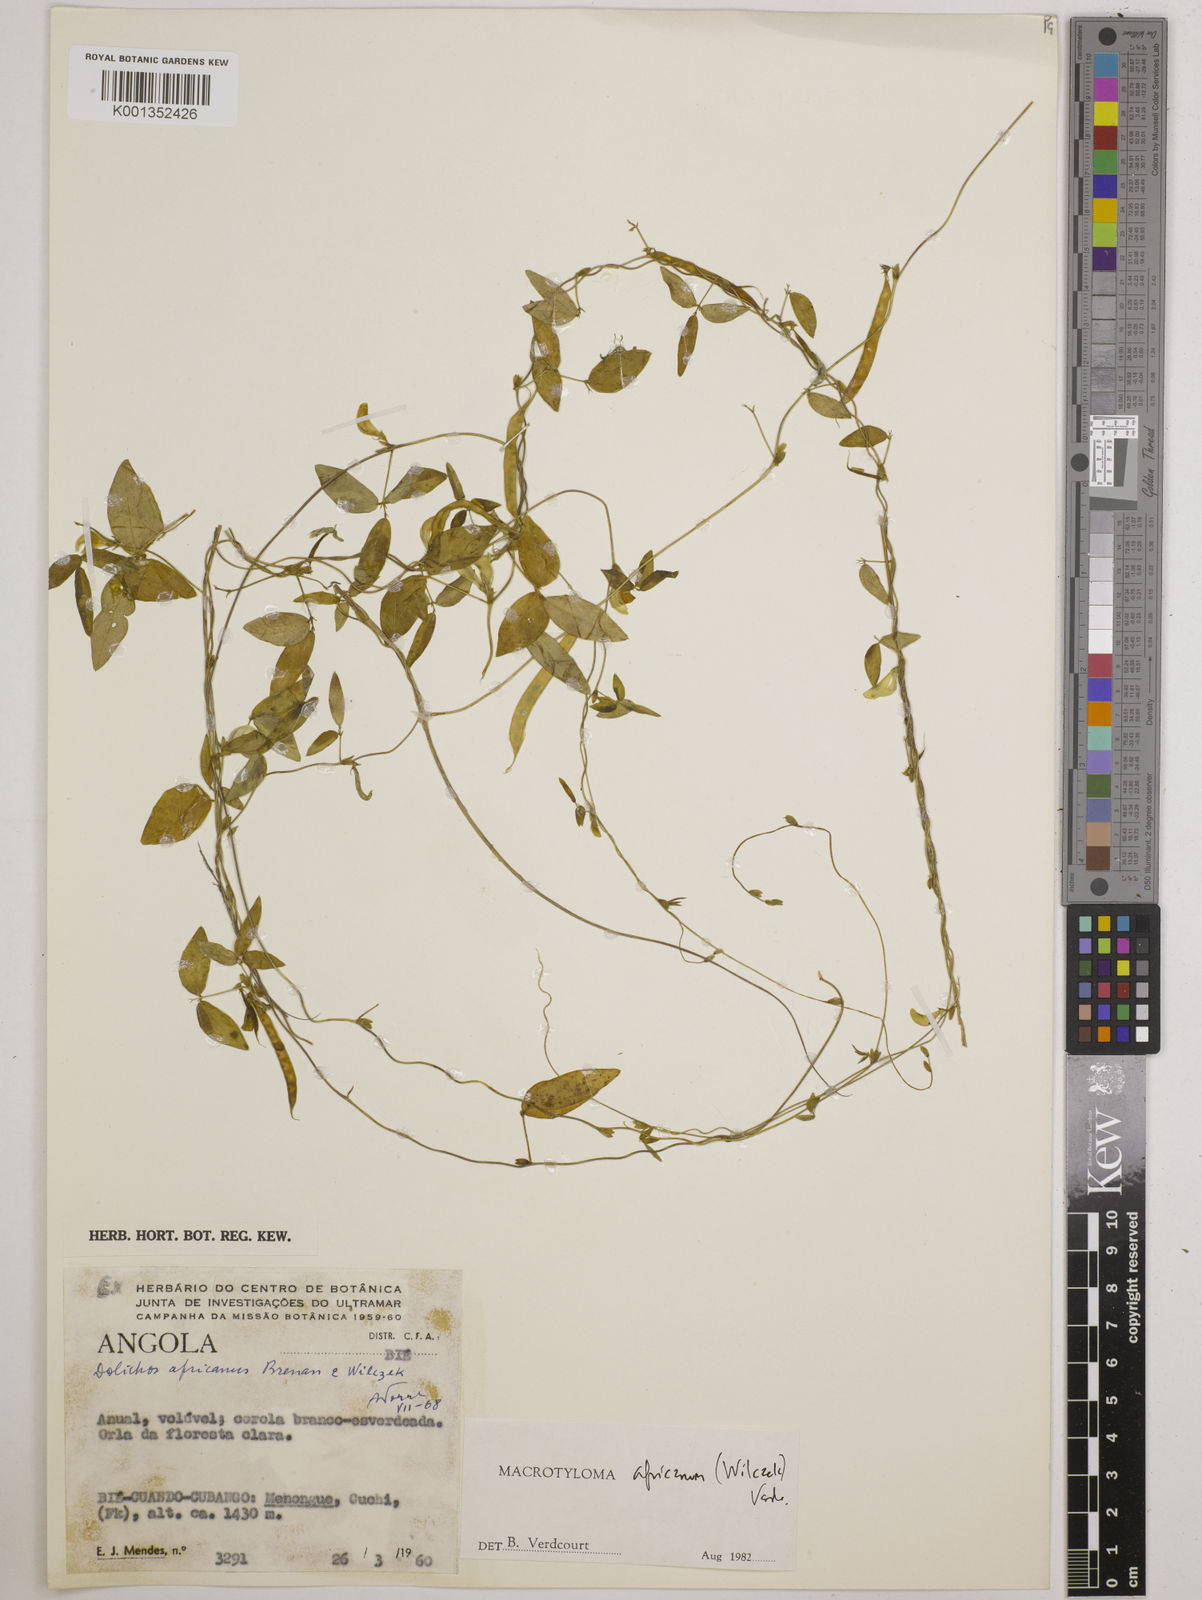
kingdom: Plantae
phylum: Tracheophyta
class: Magnoliopsida
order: Fabales
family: Fabaceae
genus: Macrotyloma
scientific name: Macrotyloma africanum
